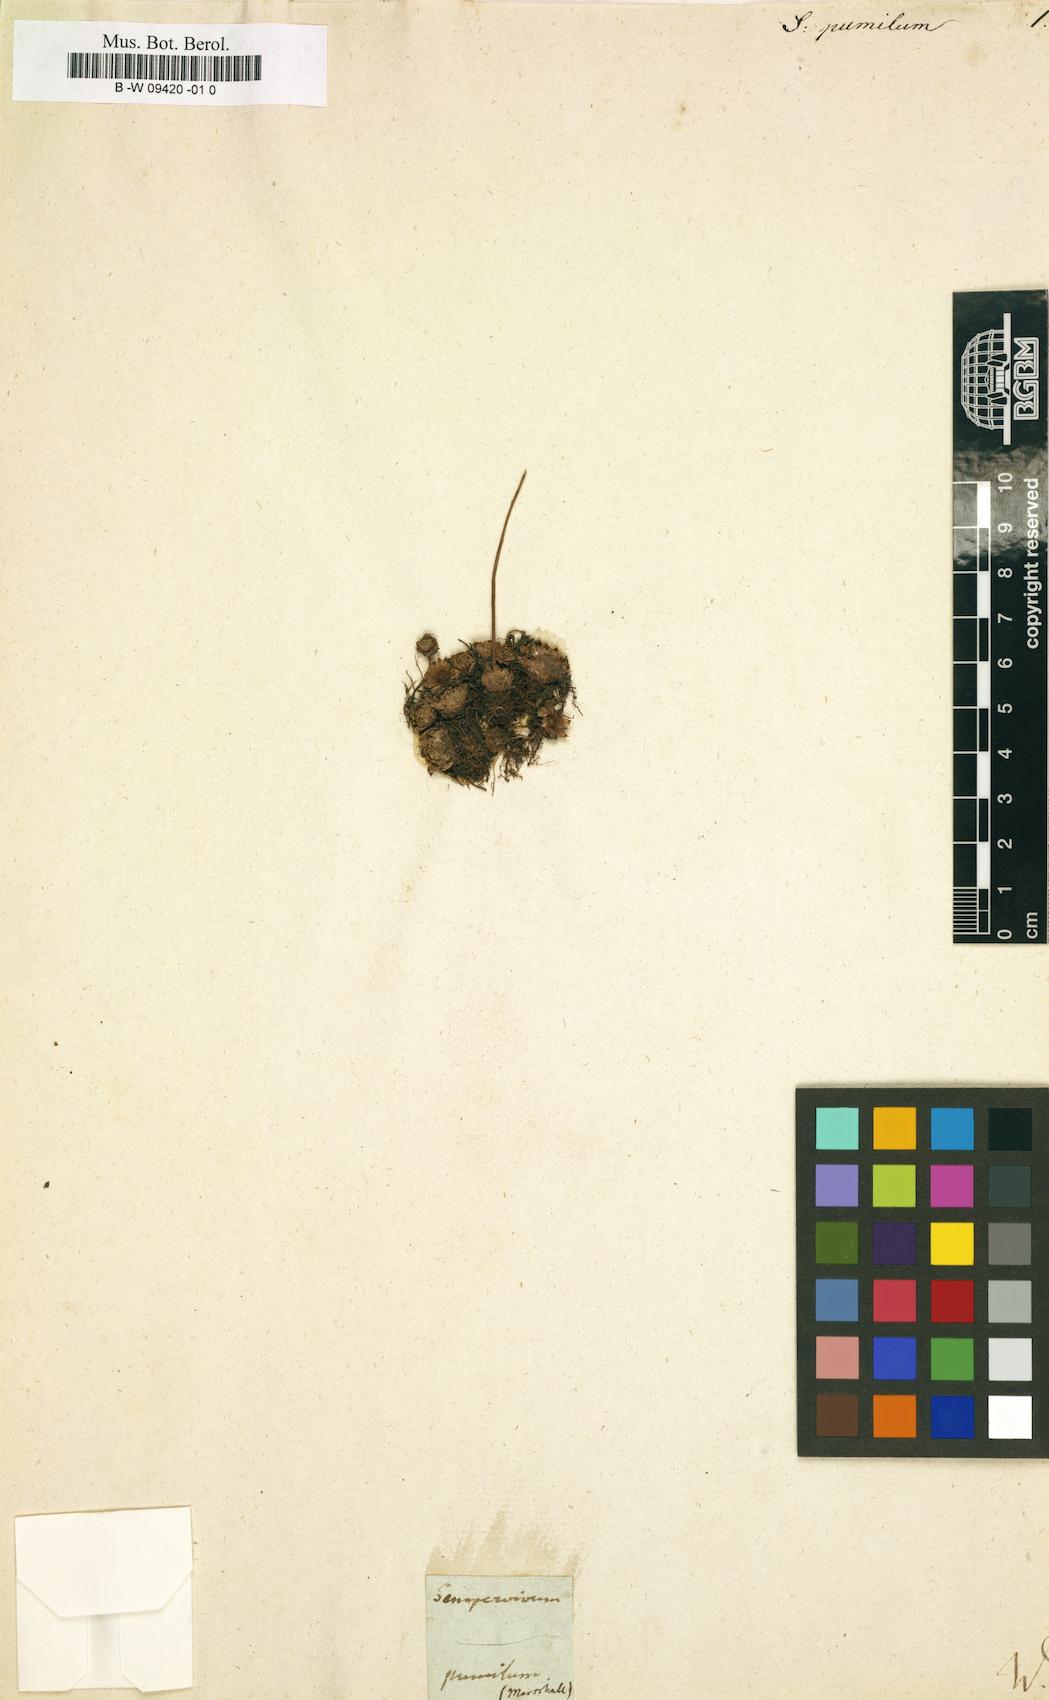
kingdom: Plantae
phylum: Tracheophyta
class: Magnoliopsida
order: Saxifragales
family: Crassulaceae
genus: Sempervivum
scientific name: Sempervivum pumilum
